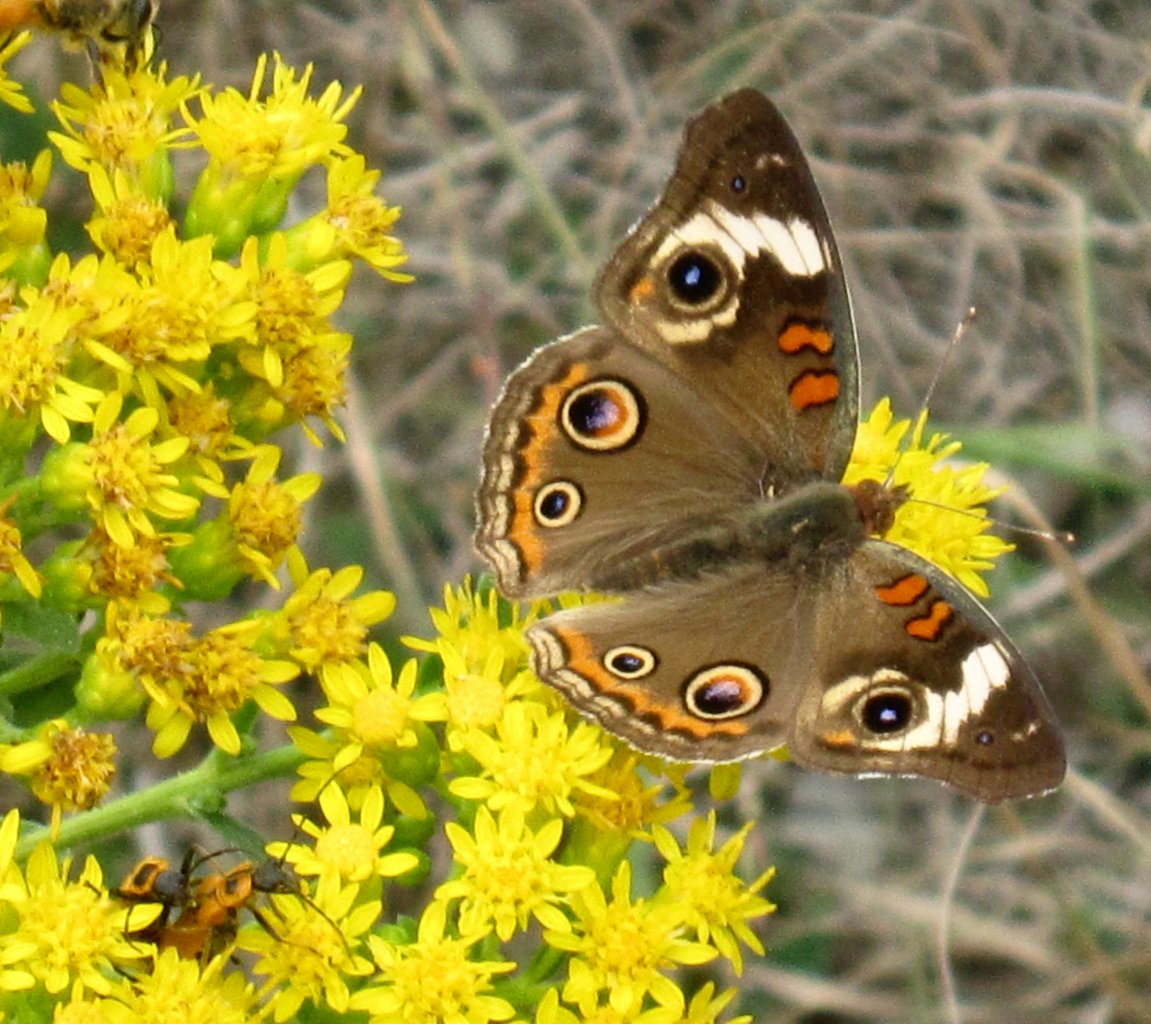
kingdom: Animalia
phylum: Arthropoda
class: Insecta
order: Lepidoptera
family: Nymphalidae
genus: Junonia
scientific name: Junonia coenia
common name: Common Buckeye
